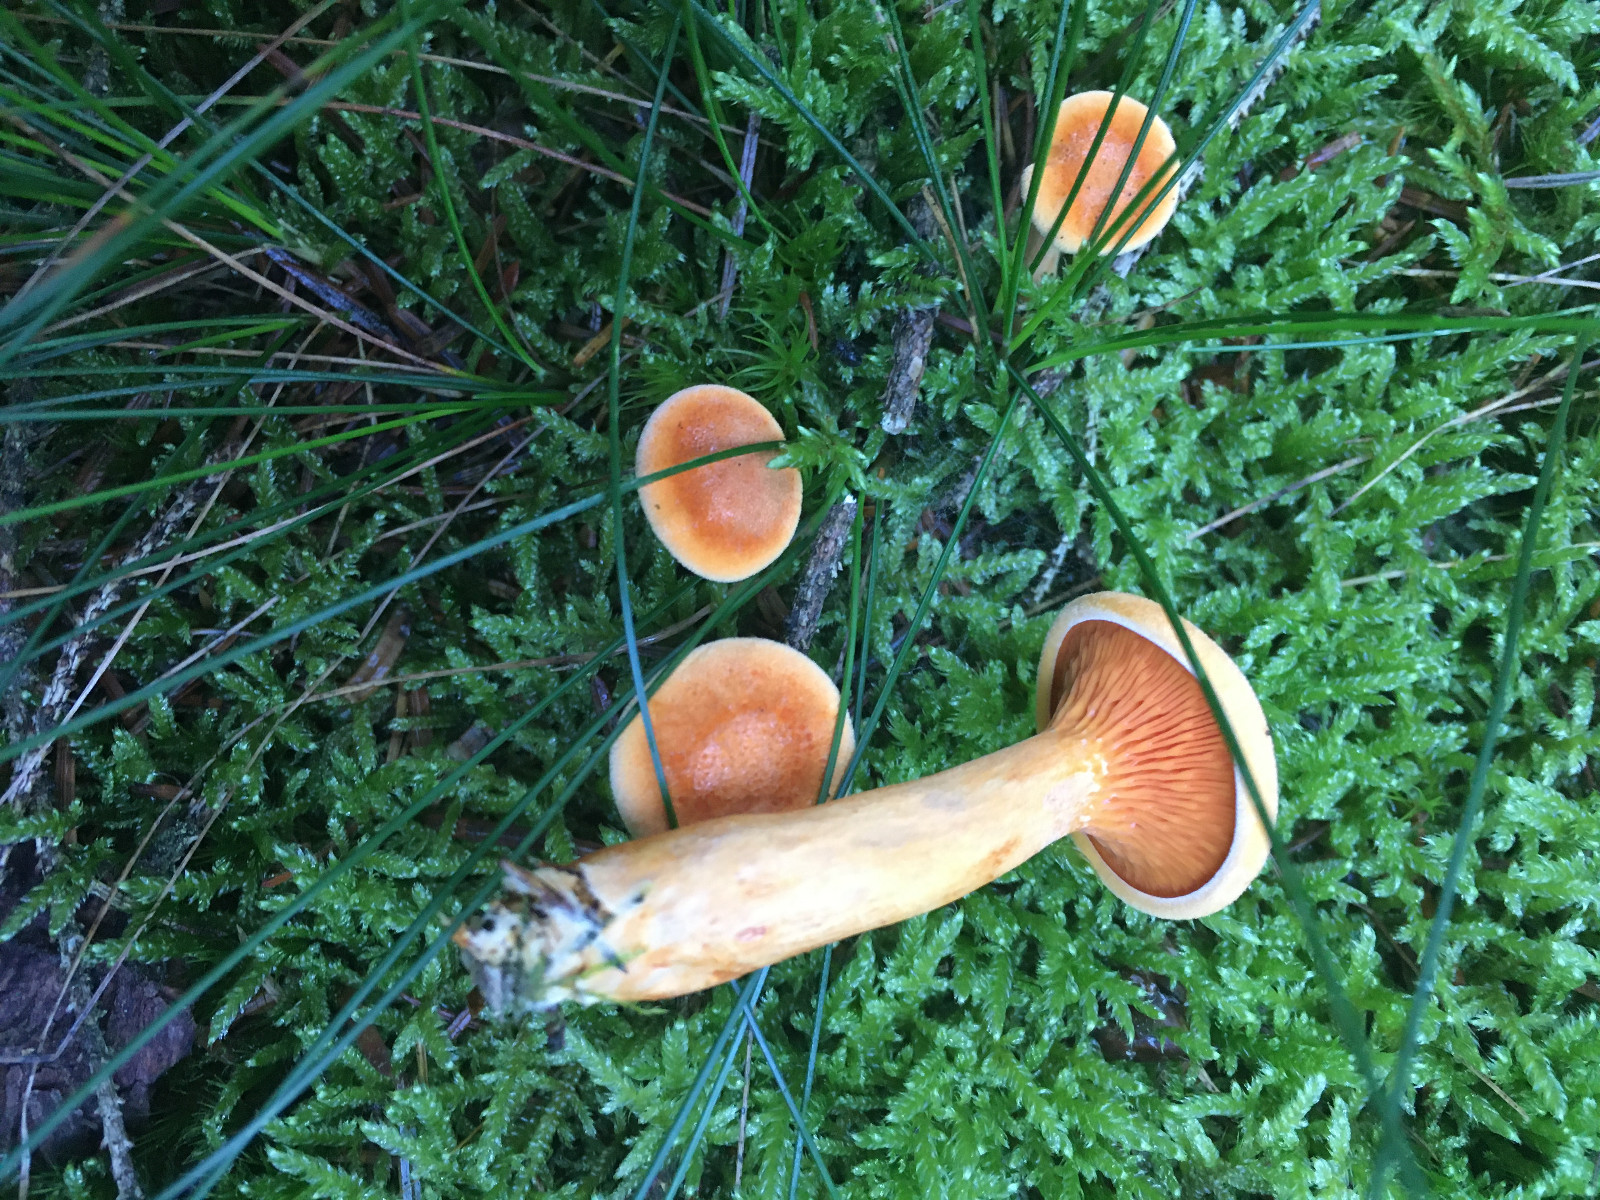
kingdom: Fungi
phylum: Basidiomycota
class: Agaricomycetes
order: Boletales
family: Hygrophoropsidaceae
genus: Hygrophoropsis
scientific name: Hygrophoropsis aurantiaca
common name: almindelig orangekantarel
